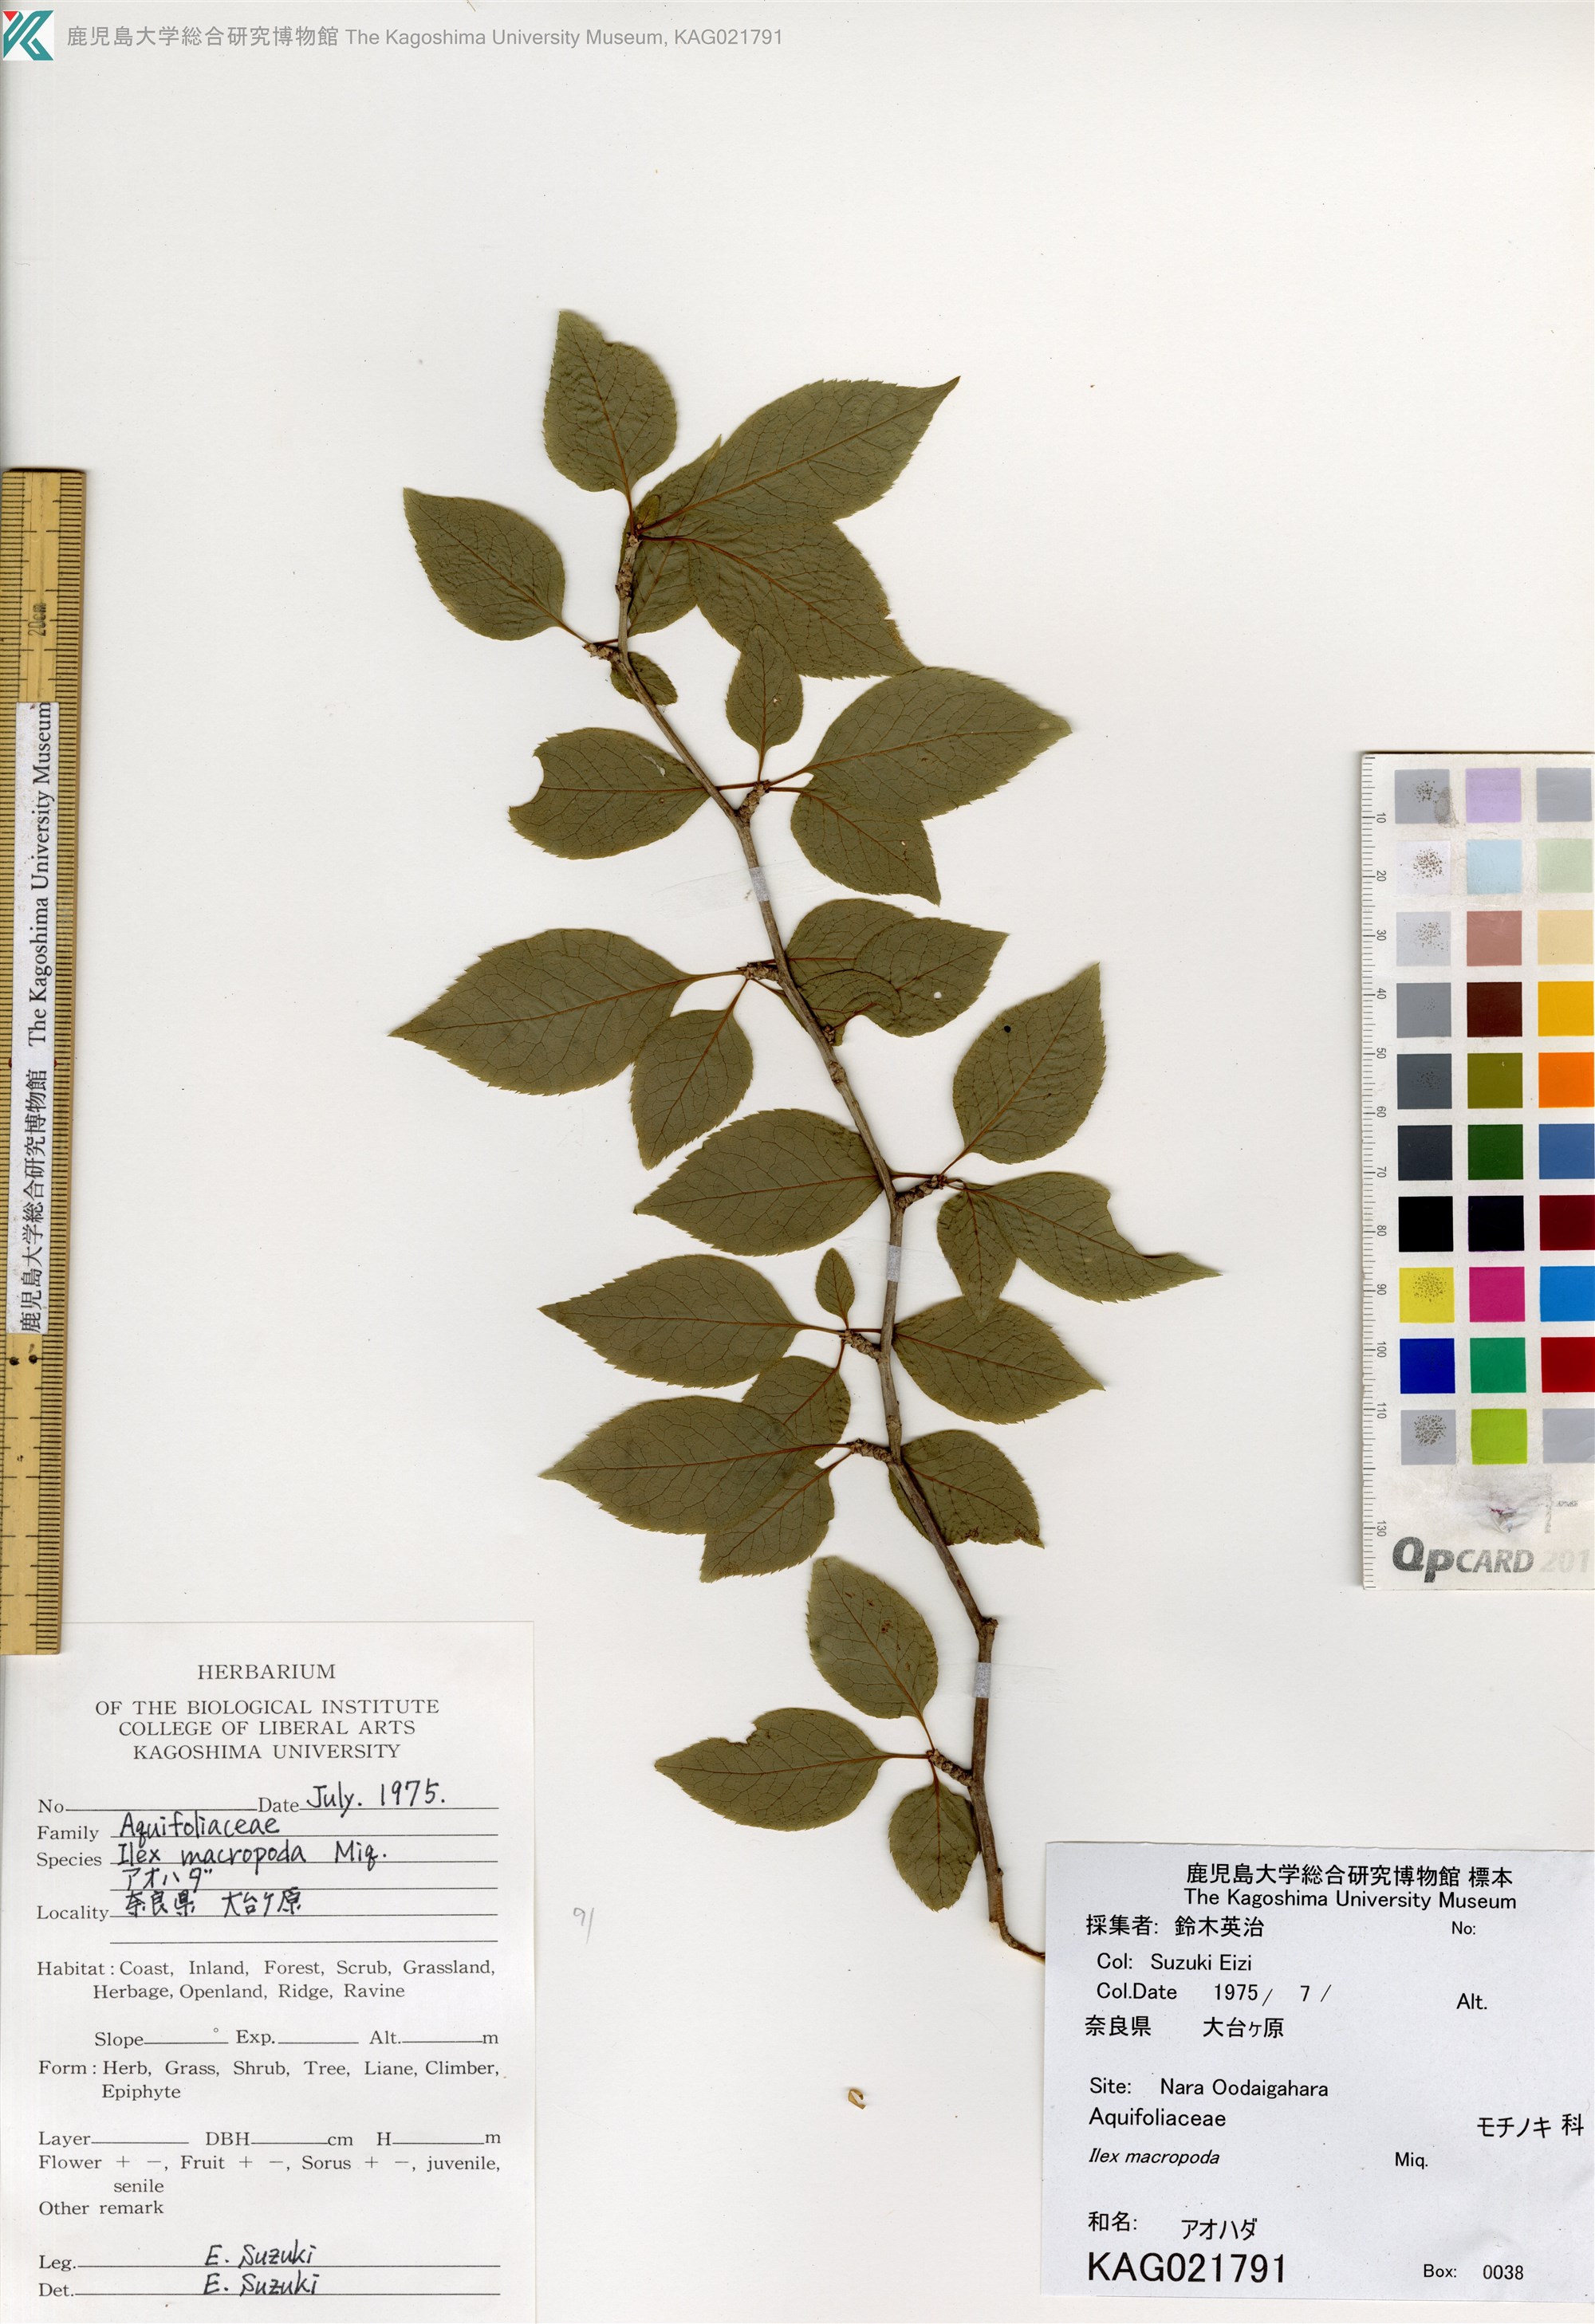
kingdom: Plantae
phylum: Tracheophyta
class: Magnoliopsida
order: Aquifoliales
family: Aquifoliaceae
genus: Ilex
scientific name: Ilex macropoda
